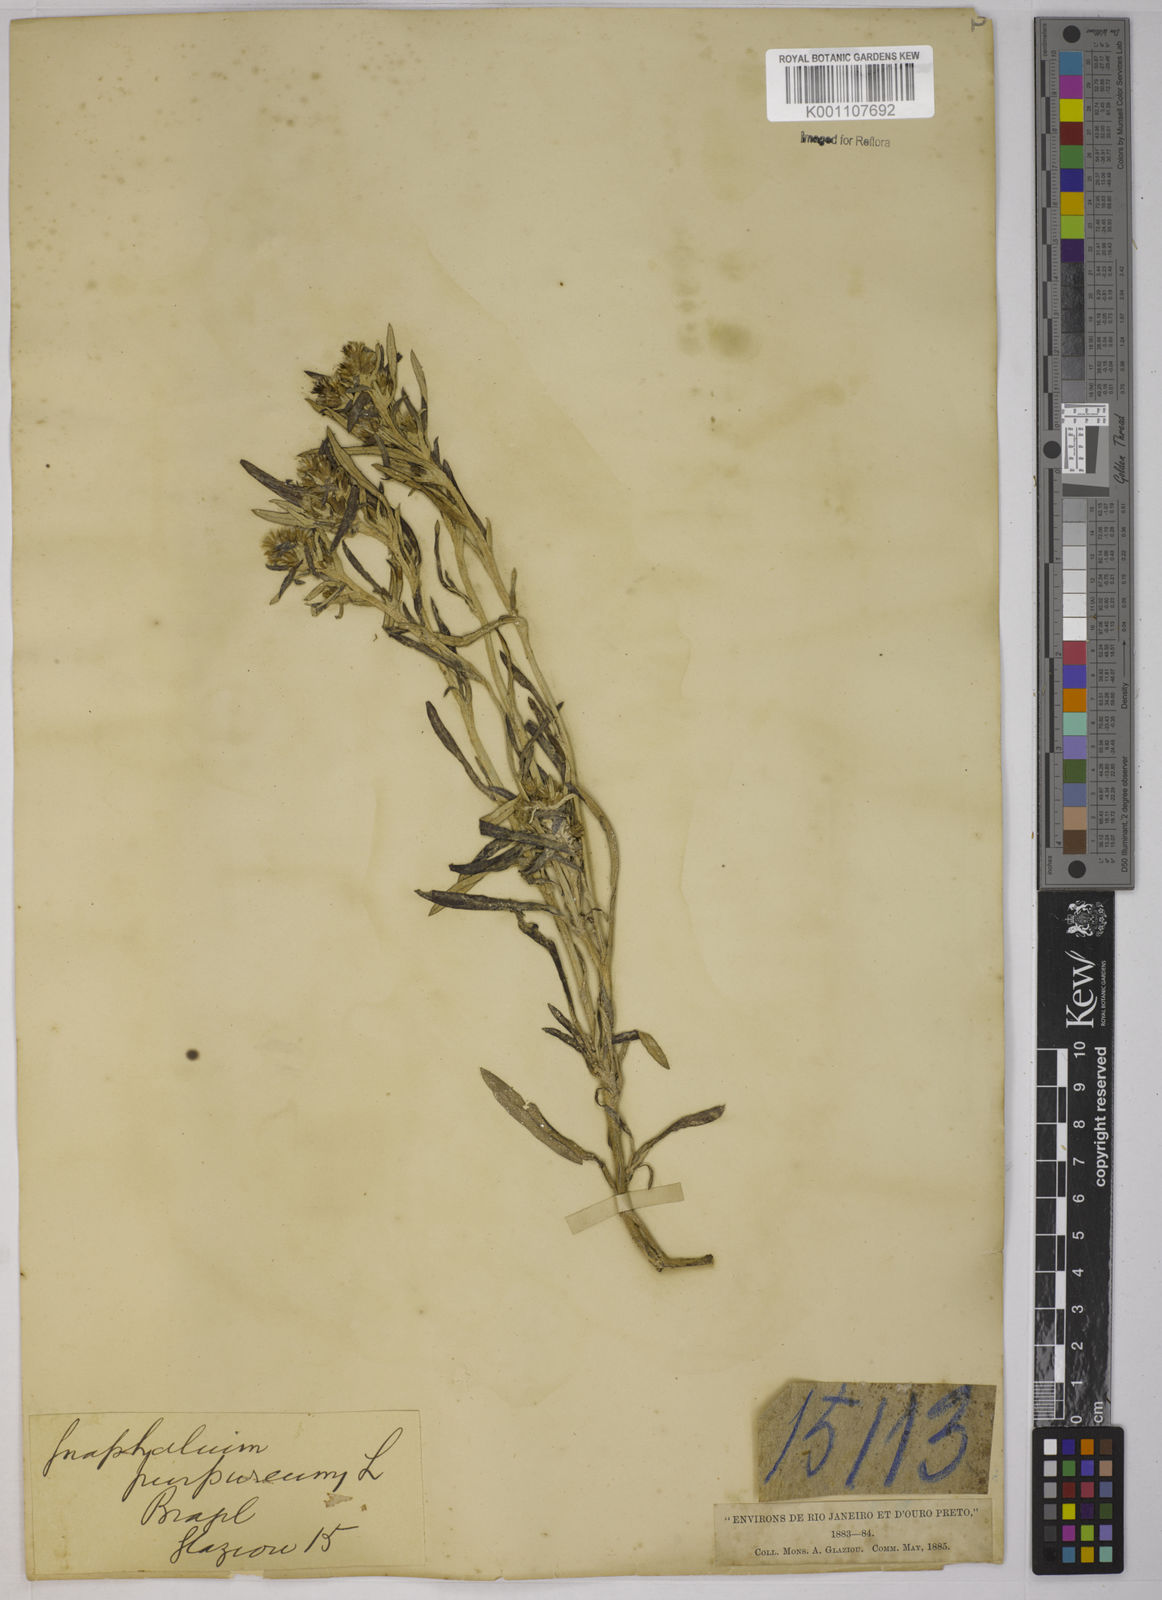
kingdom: Plantae
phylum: Tracheophyta
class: Magnoliopsida
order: Asterales
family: Asteraceae
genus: Gamochaeta
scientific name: Gamochaeta purpurea
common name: Purple cudweed
